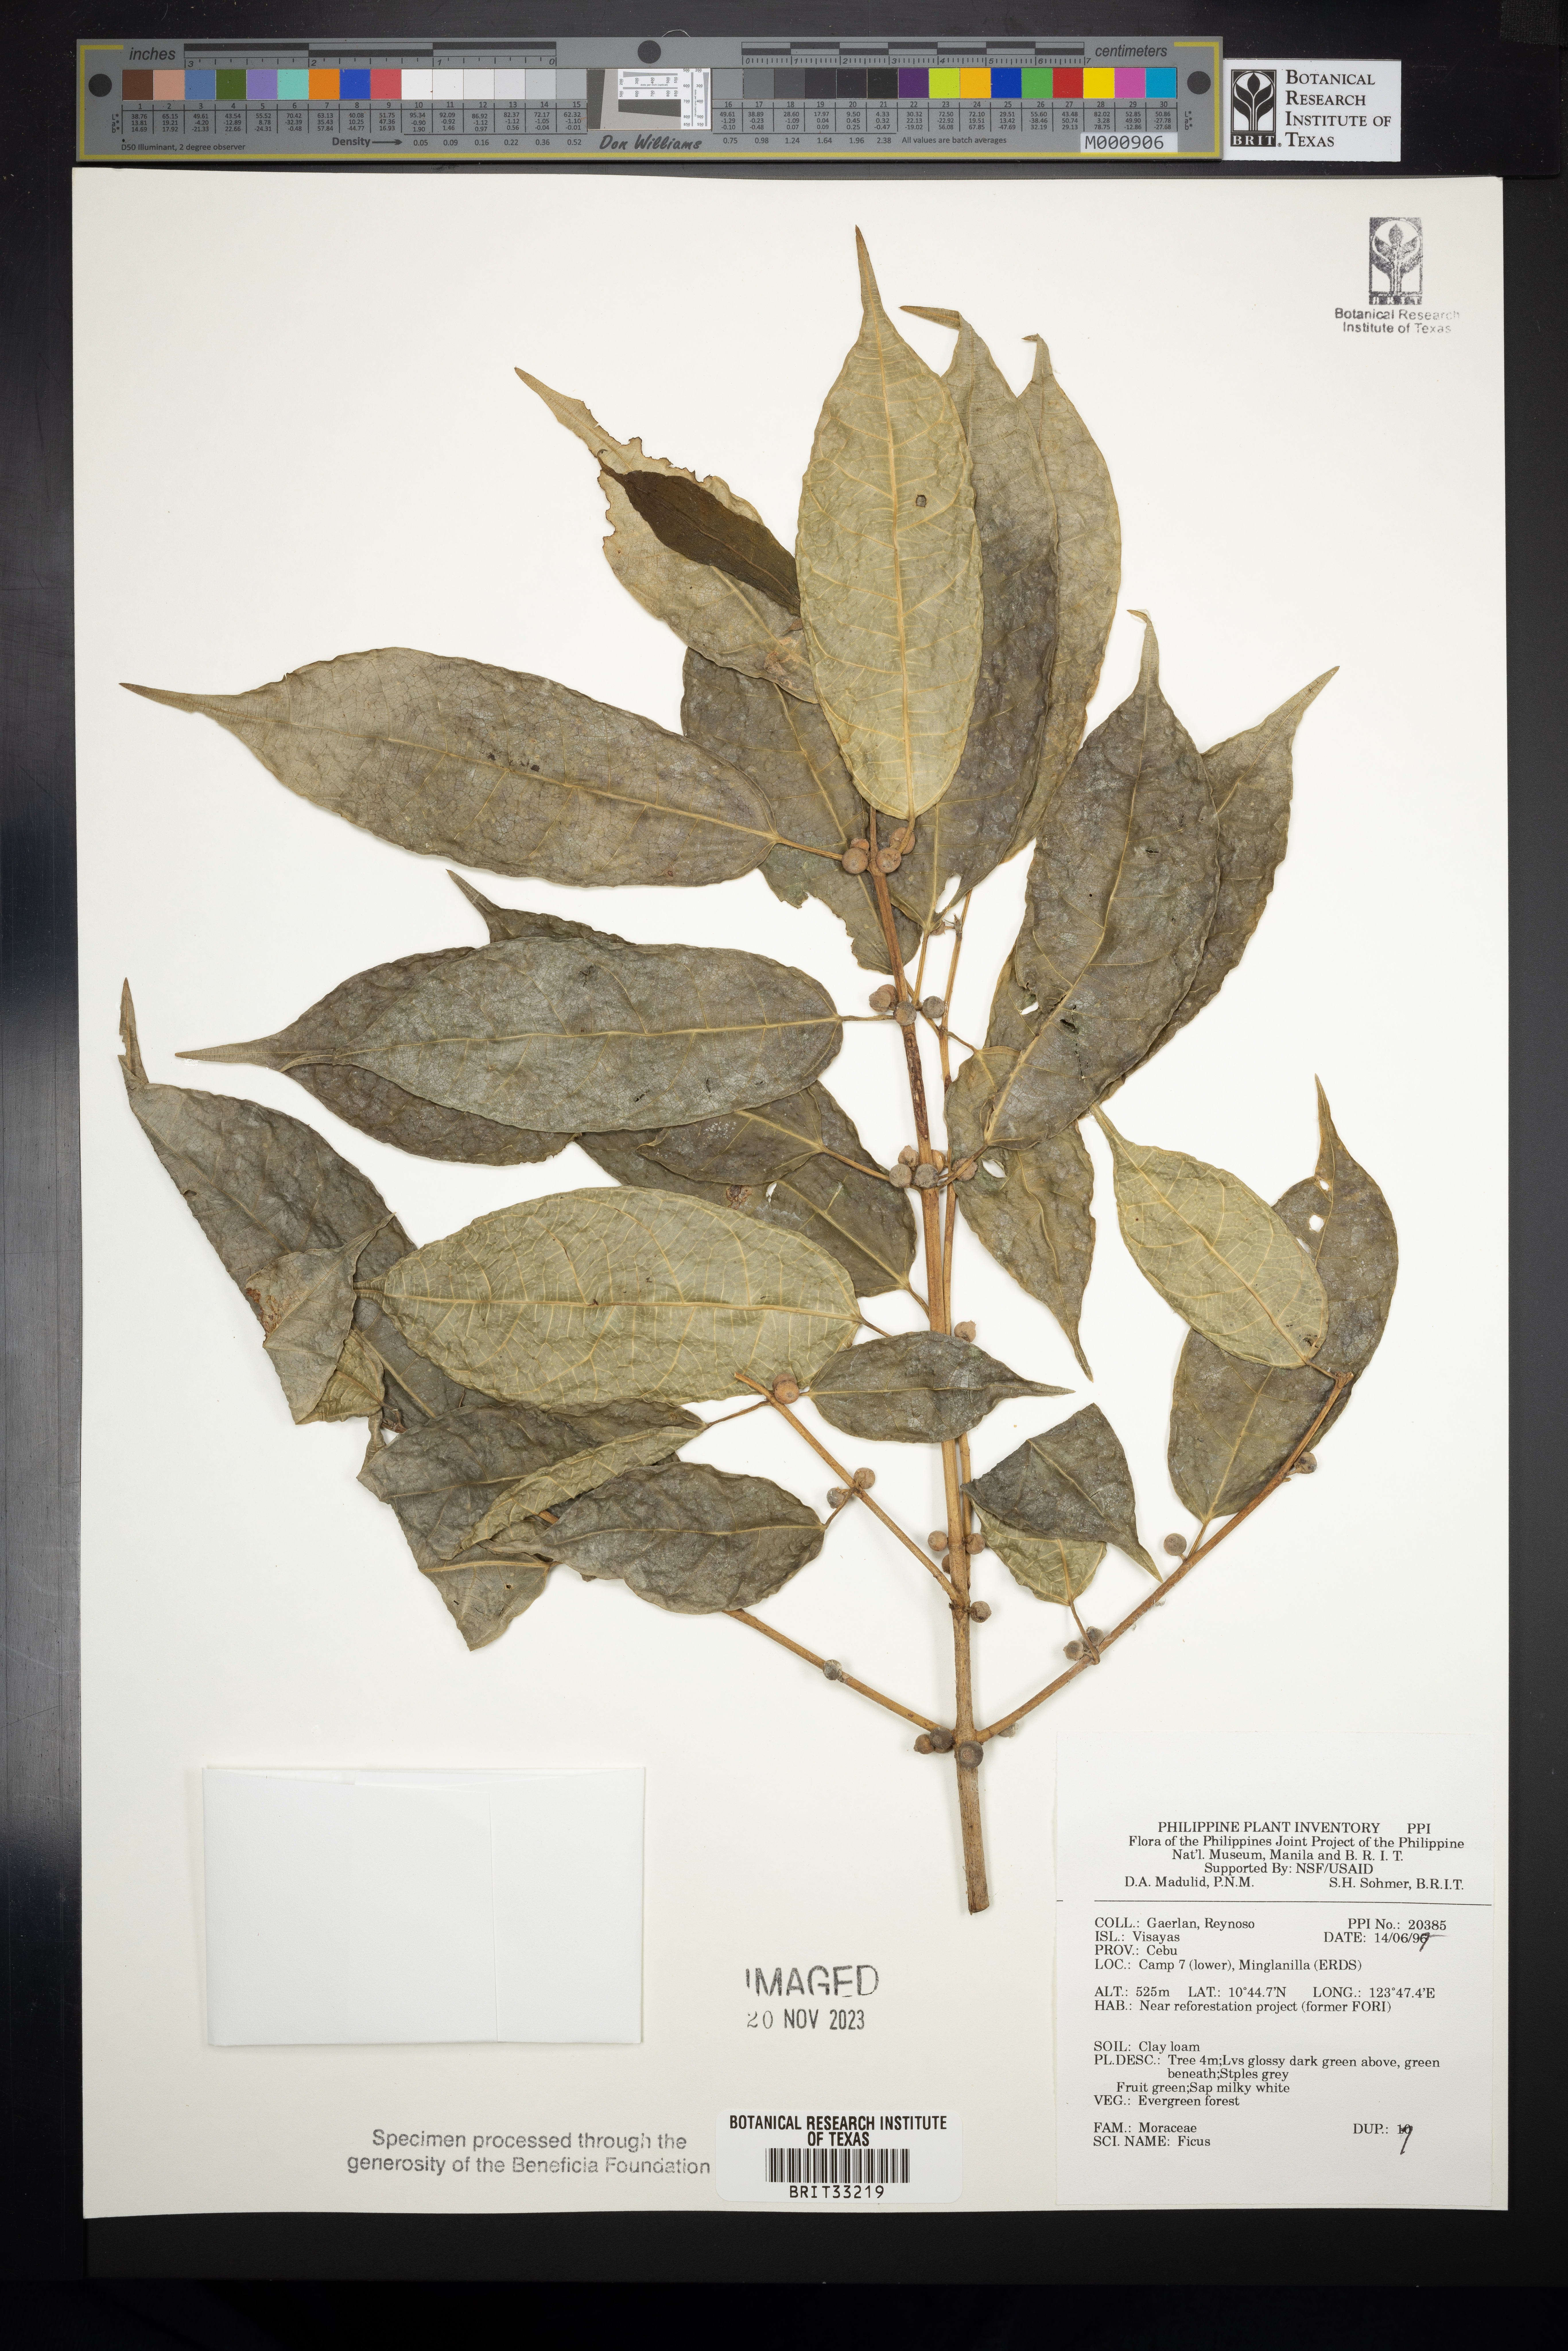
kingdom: Plantae
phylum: Tracheophyta
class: Magnoliopsida
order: Rosales
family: Moraceae
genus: Ficus
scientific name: Ficus
